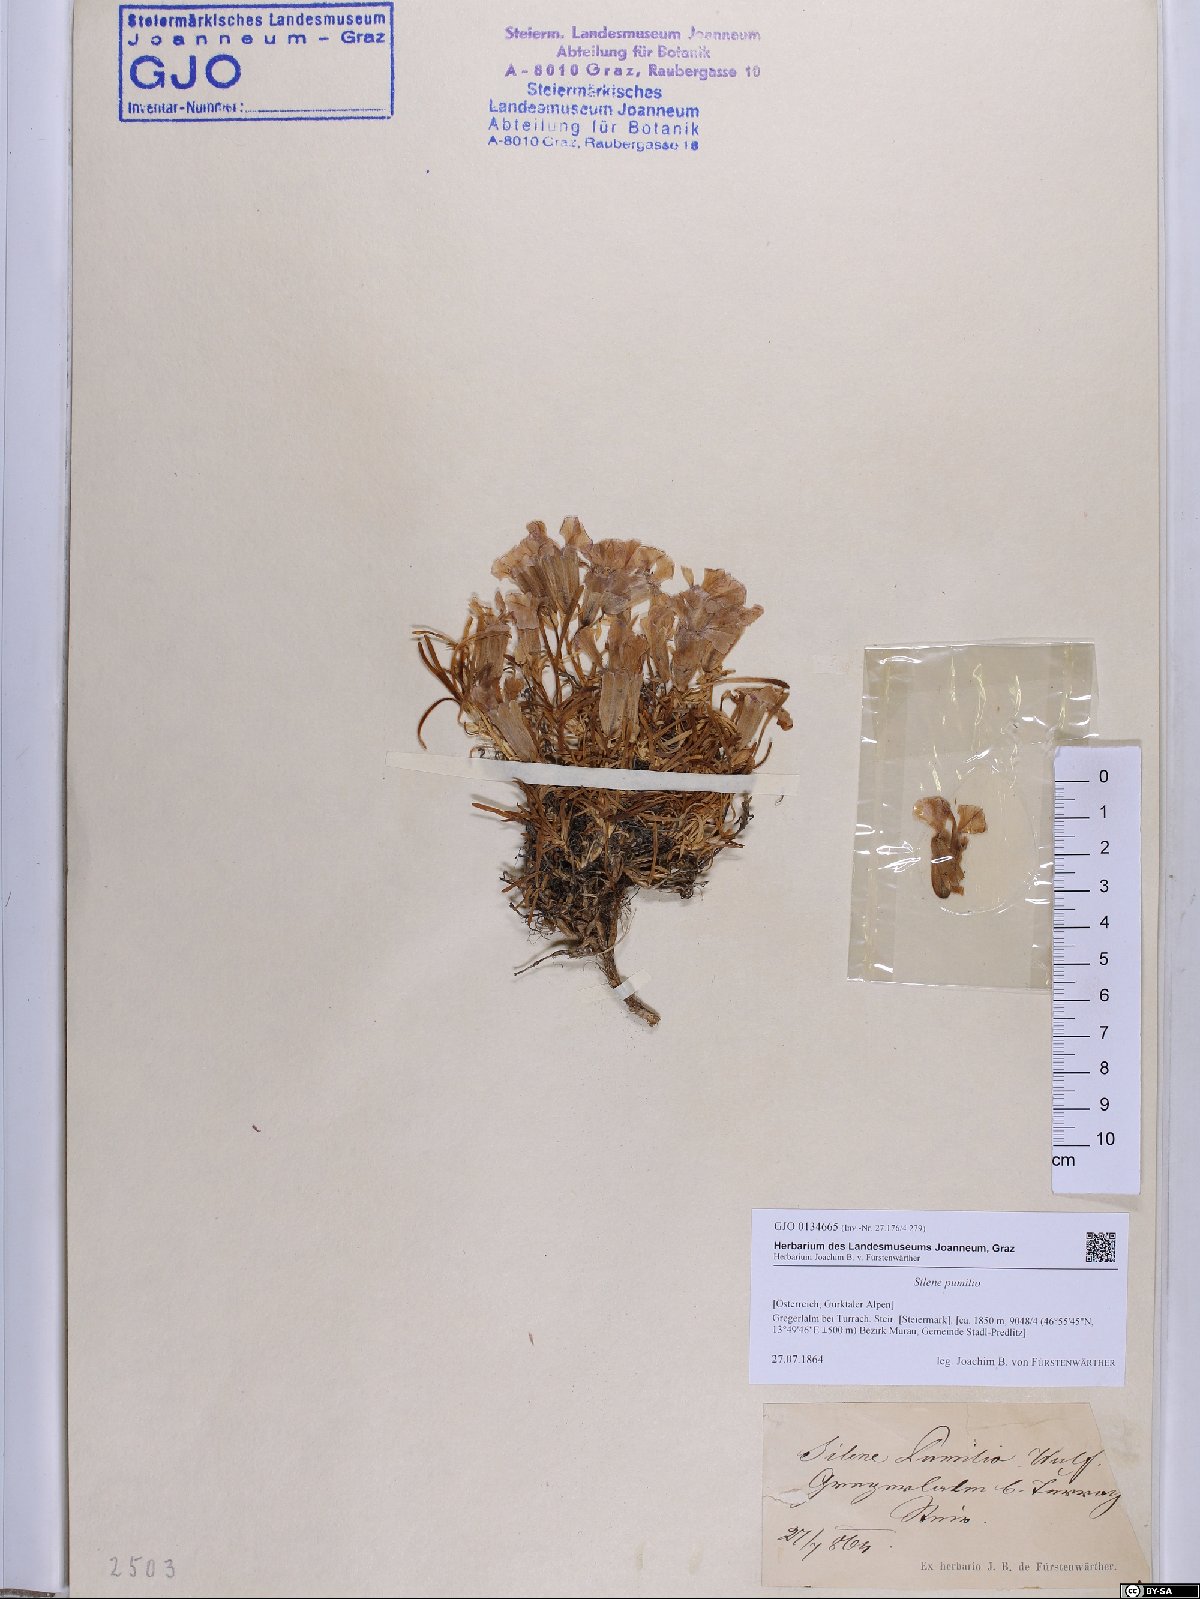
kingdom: Plantae
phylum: Tracheophyta
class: Magnoliopsida
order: Caryophyllales
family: Caryophyllaceae
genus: Saponaria
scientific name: Saponaria pumila
